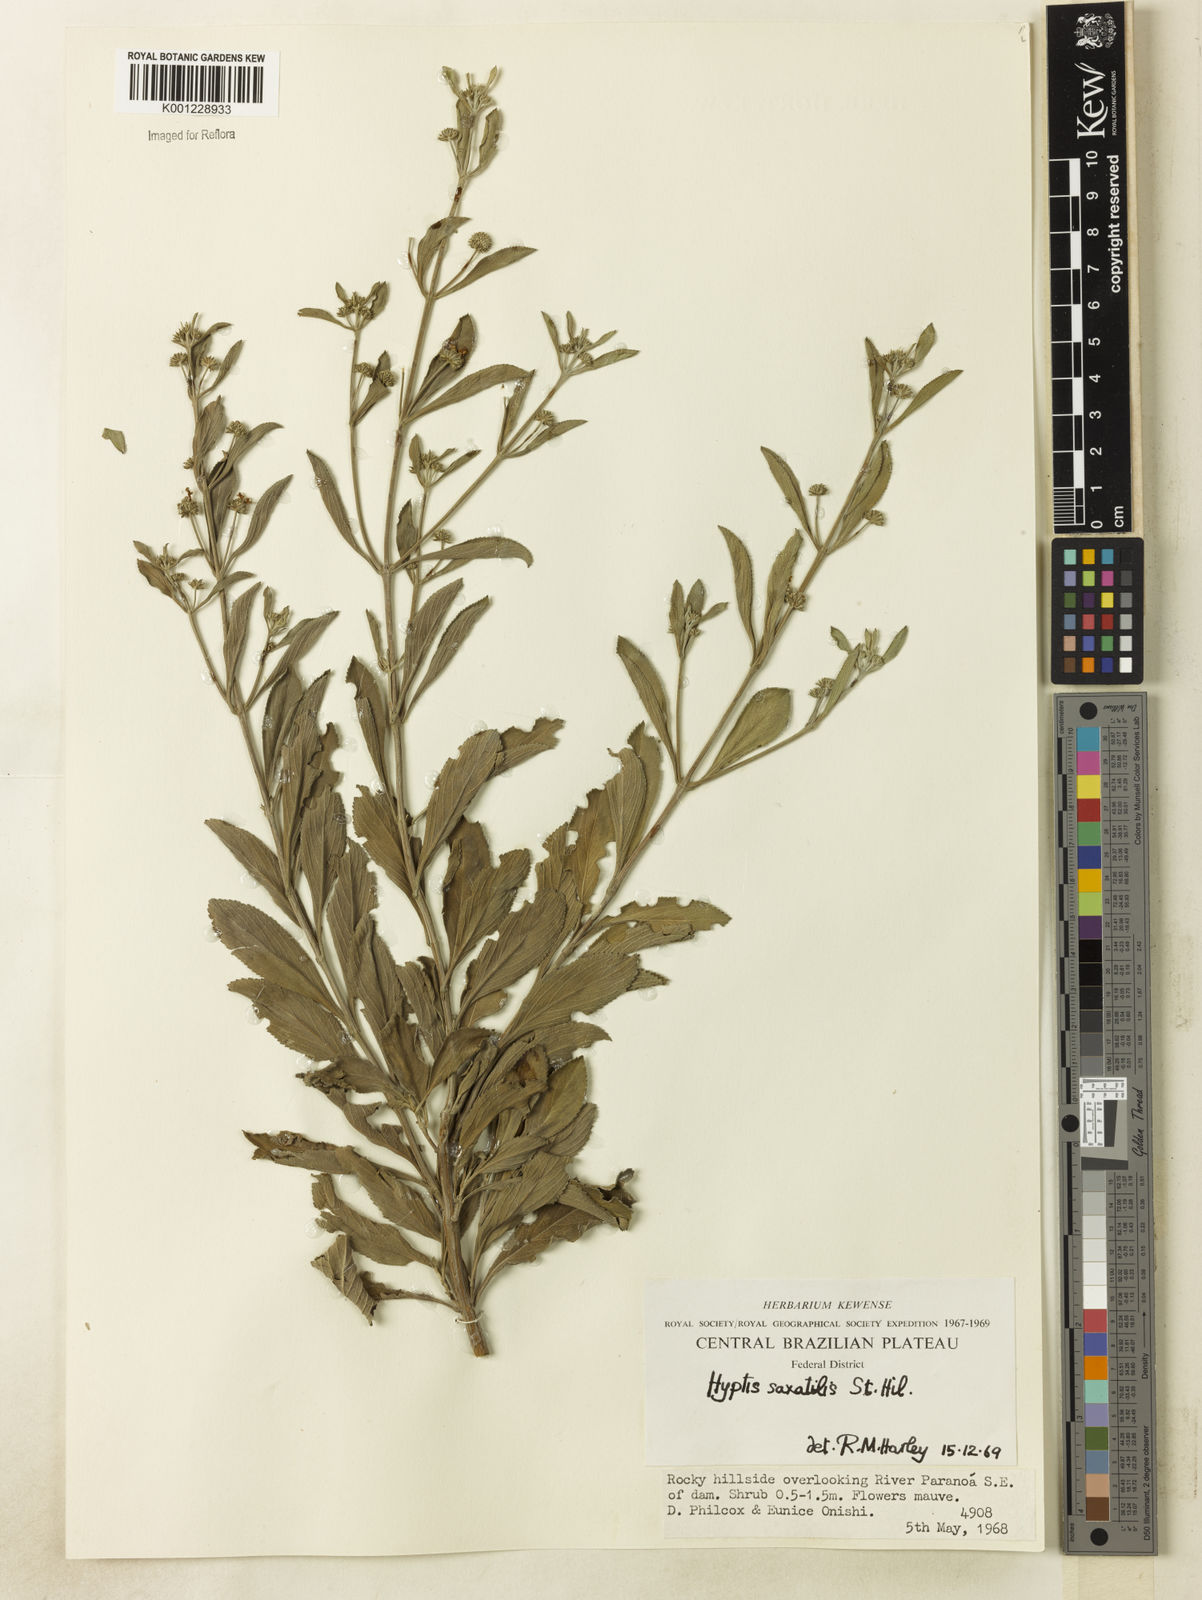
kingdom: Plantae
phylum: Tracheophyta
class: Magnoliopsida
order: Lamiales
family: Lamiaceae
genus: Hyptis
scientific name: Hyptis saxatilis
